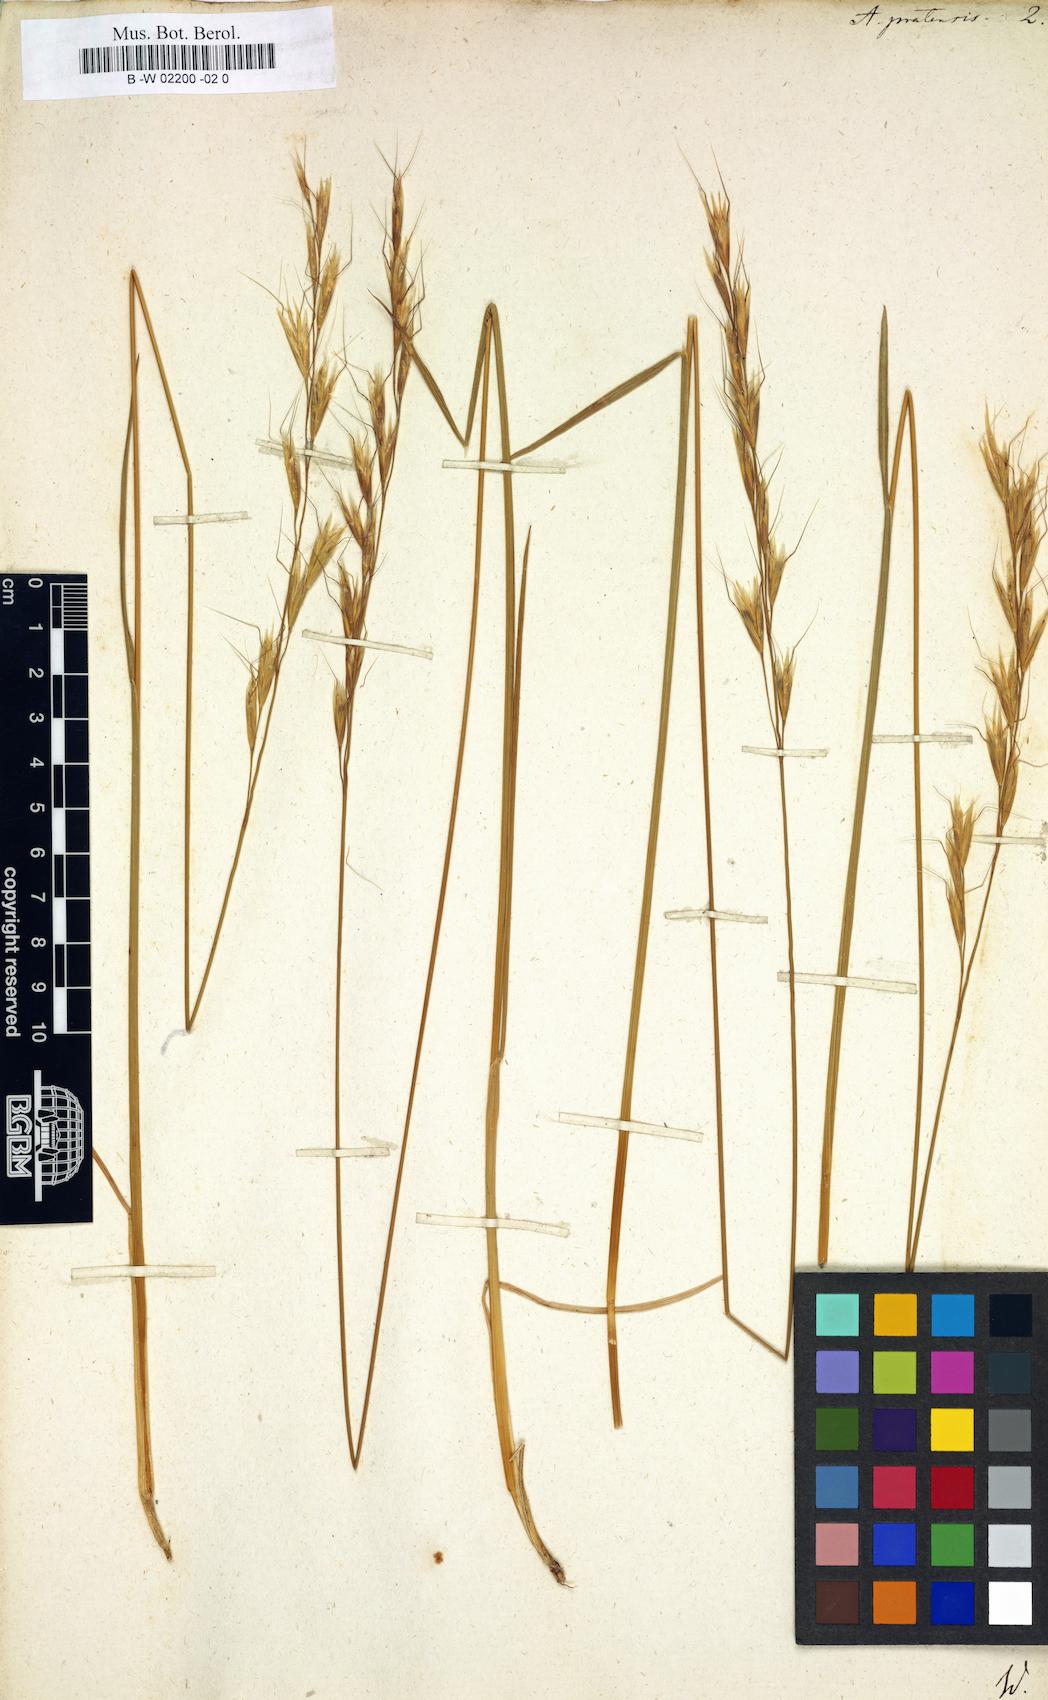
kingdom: Plantae
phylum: Tracheophyta
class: Liliopsida
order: Poales
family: Poaceae
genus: Helictochloa
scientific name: Helictochloa pratensis
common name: Meadow oat grass
